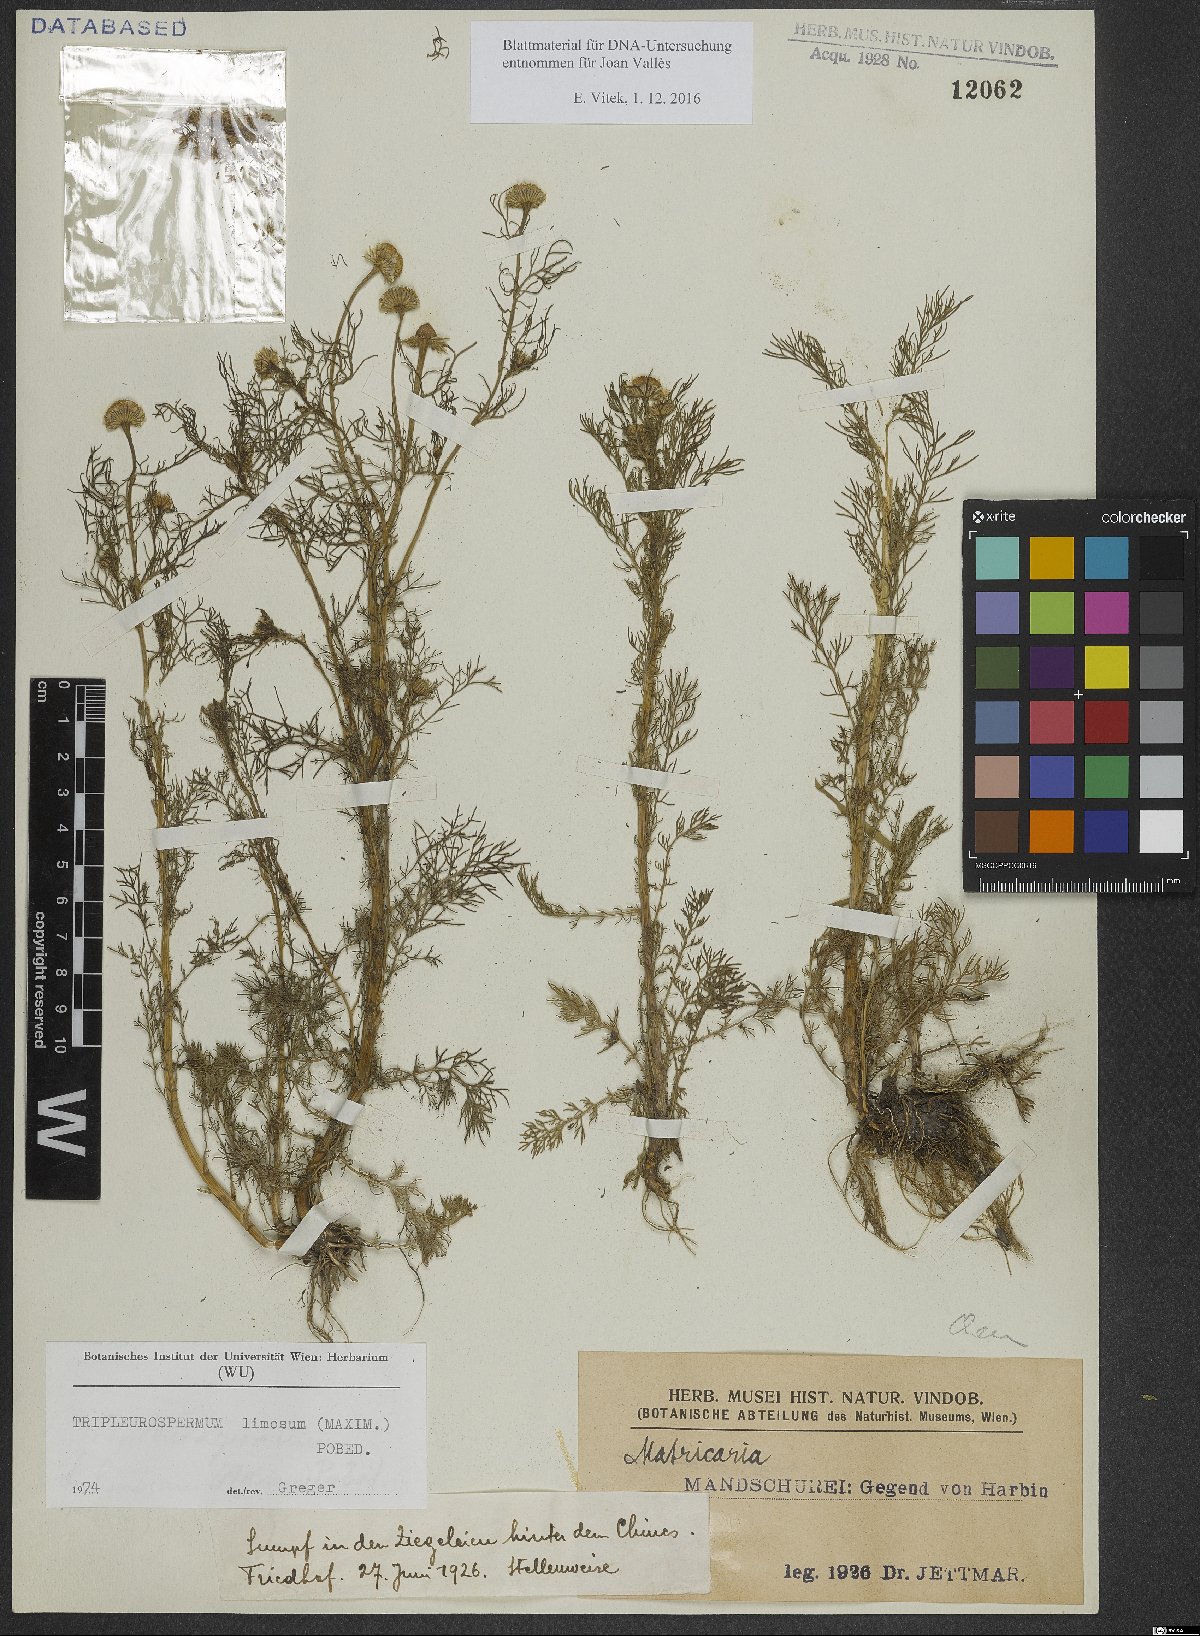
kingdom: Plantae
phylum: Tracheophyta
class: Magnoliopsida
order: Asterales
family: Asteraceae
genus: Tripleurospermum
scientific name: Tripleurospermum limosum
